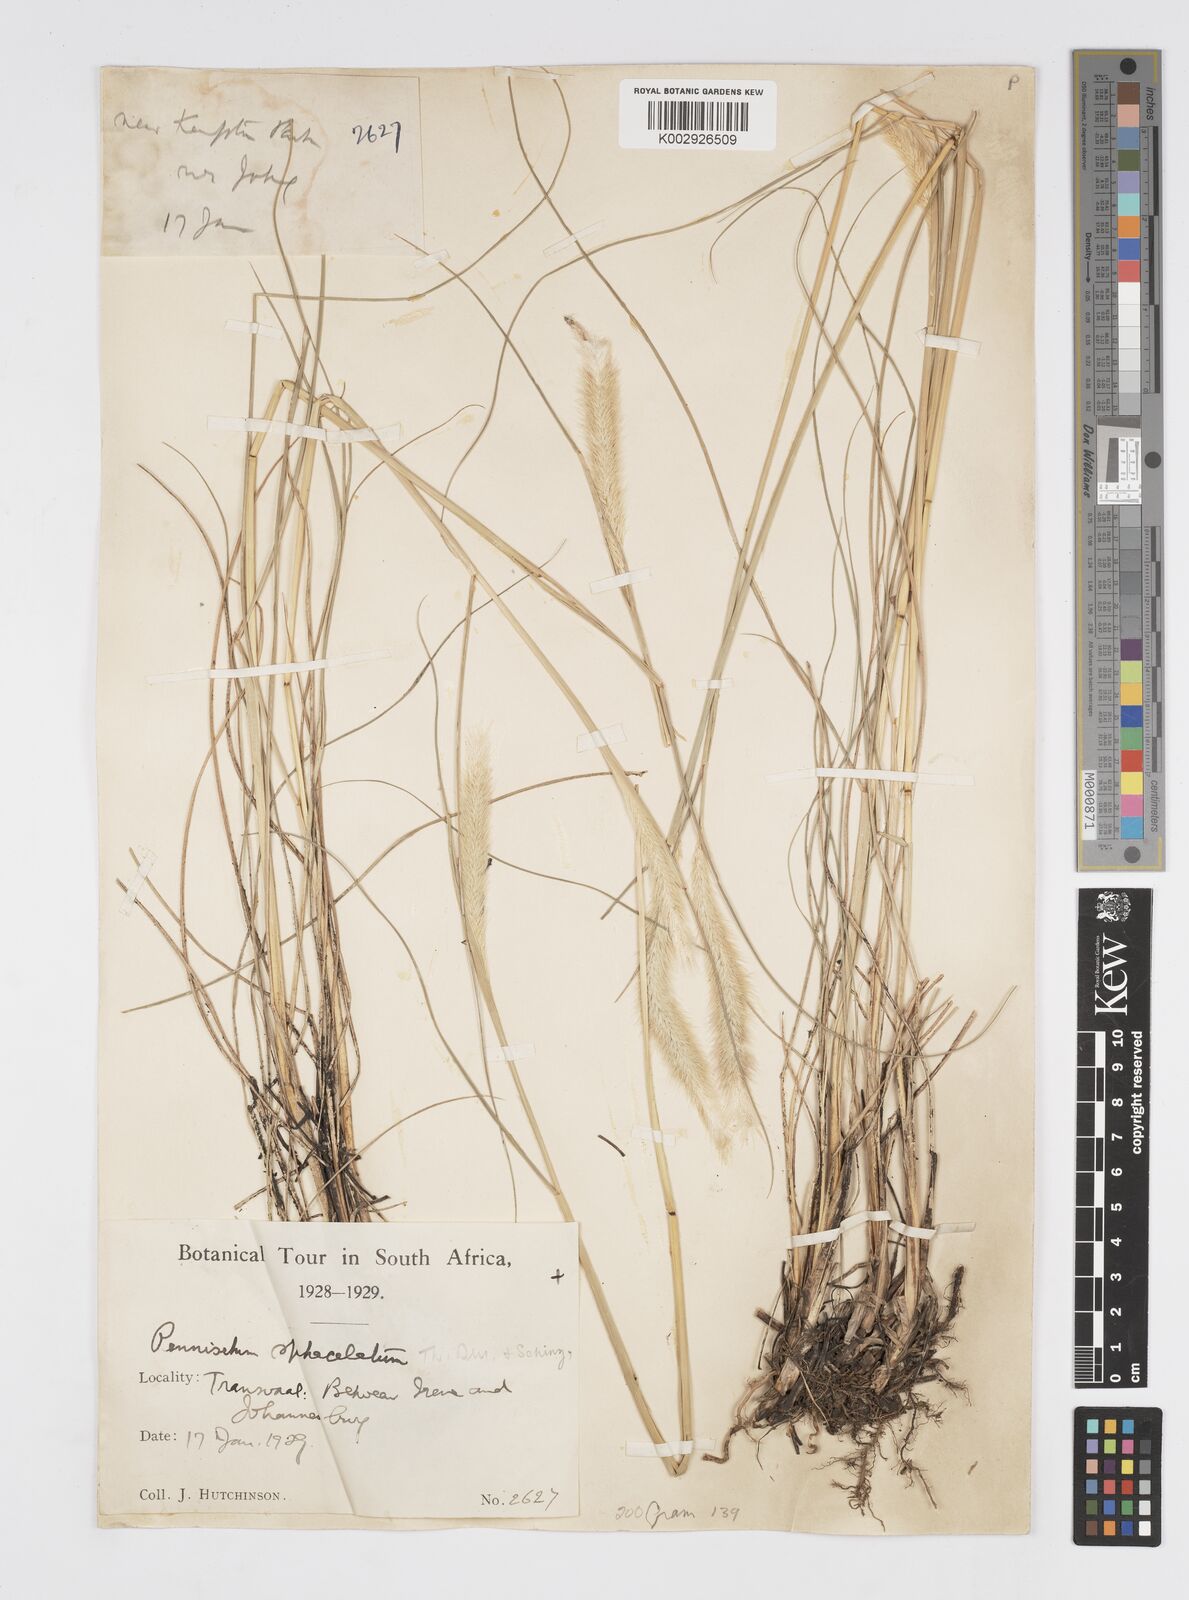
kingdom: Plantae
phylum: Tracheophyta
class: Liliopsida
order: Poales
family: Poaceae
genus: Cenchrus
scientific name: Cenchrus sphacelatus
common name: Bulgras
